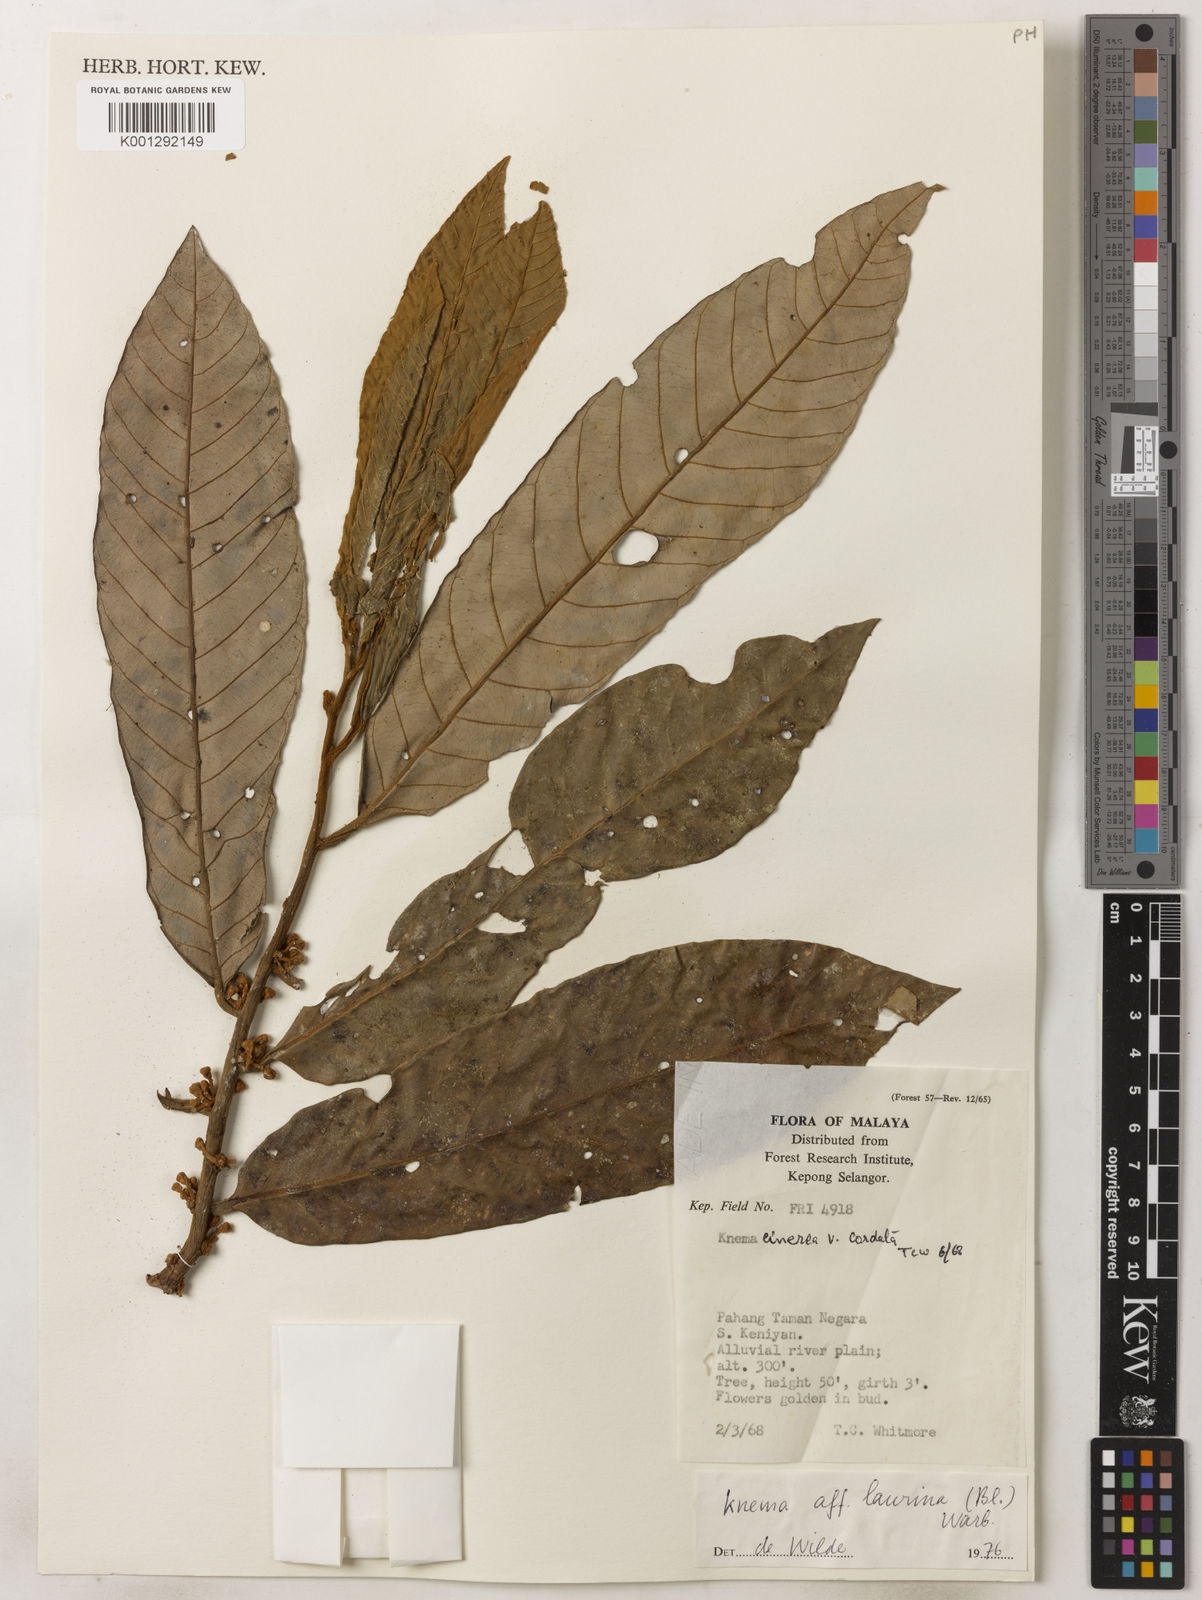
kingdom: Plantae
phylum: Tracheophyta
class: Magnoliopsida
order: Magnoliales
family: Myristicaceae
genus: Knema
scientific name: Knema laurina
